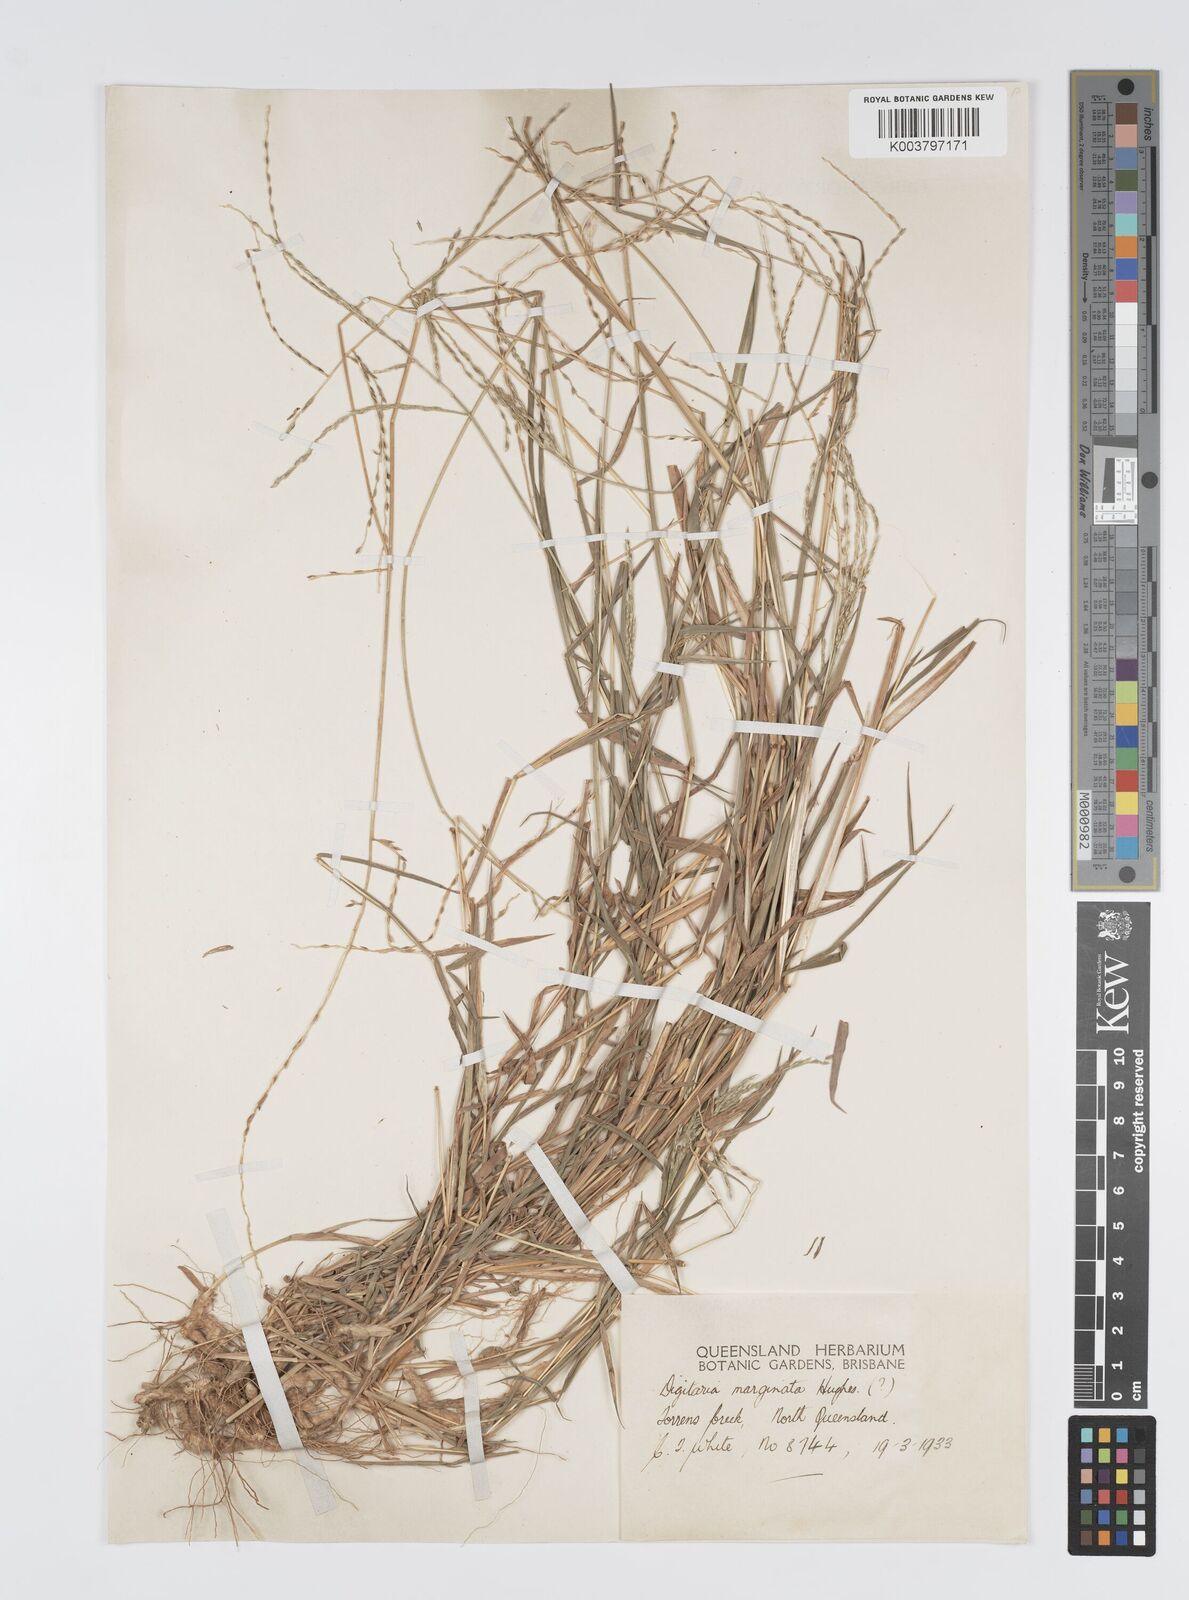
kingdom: Plantae
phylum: Tracheophyta
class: Liliopsida
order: Poales
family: Poaceae
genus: Digitaria
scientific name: Digitaria spec
